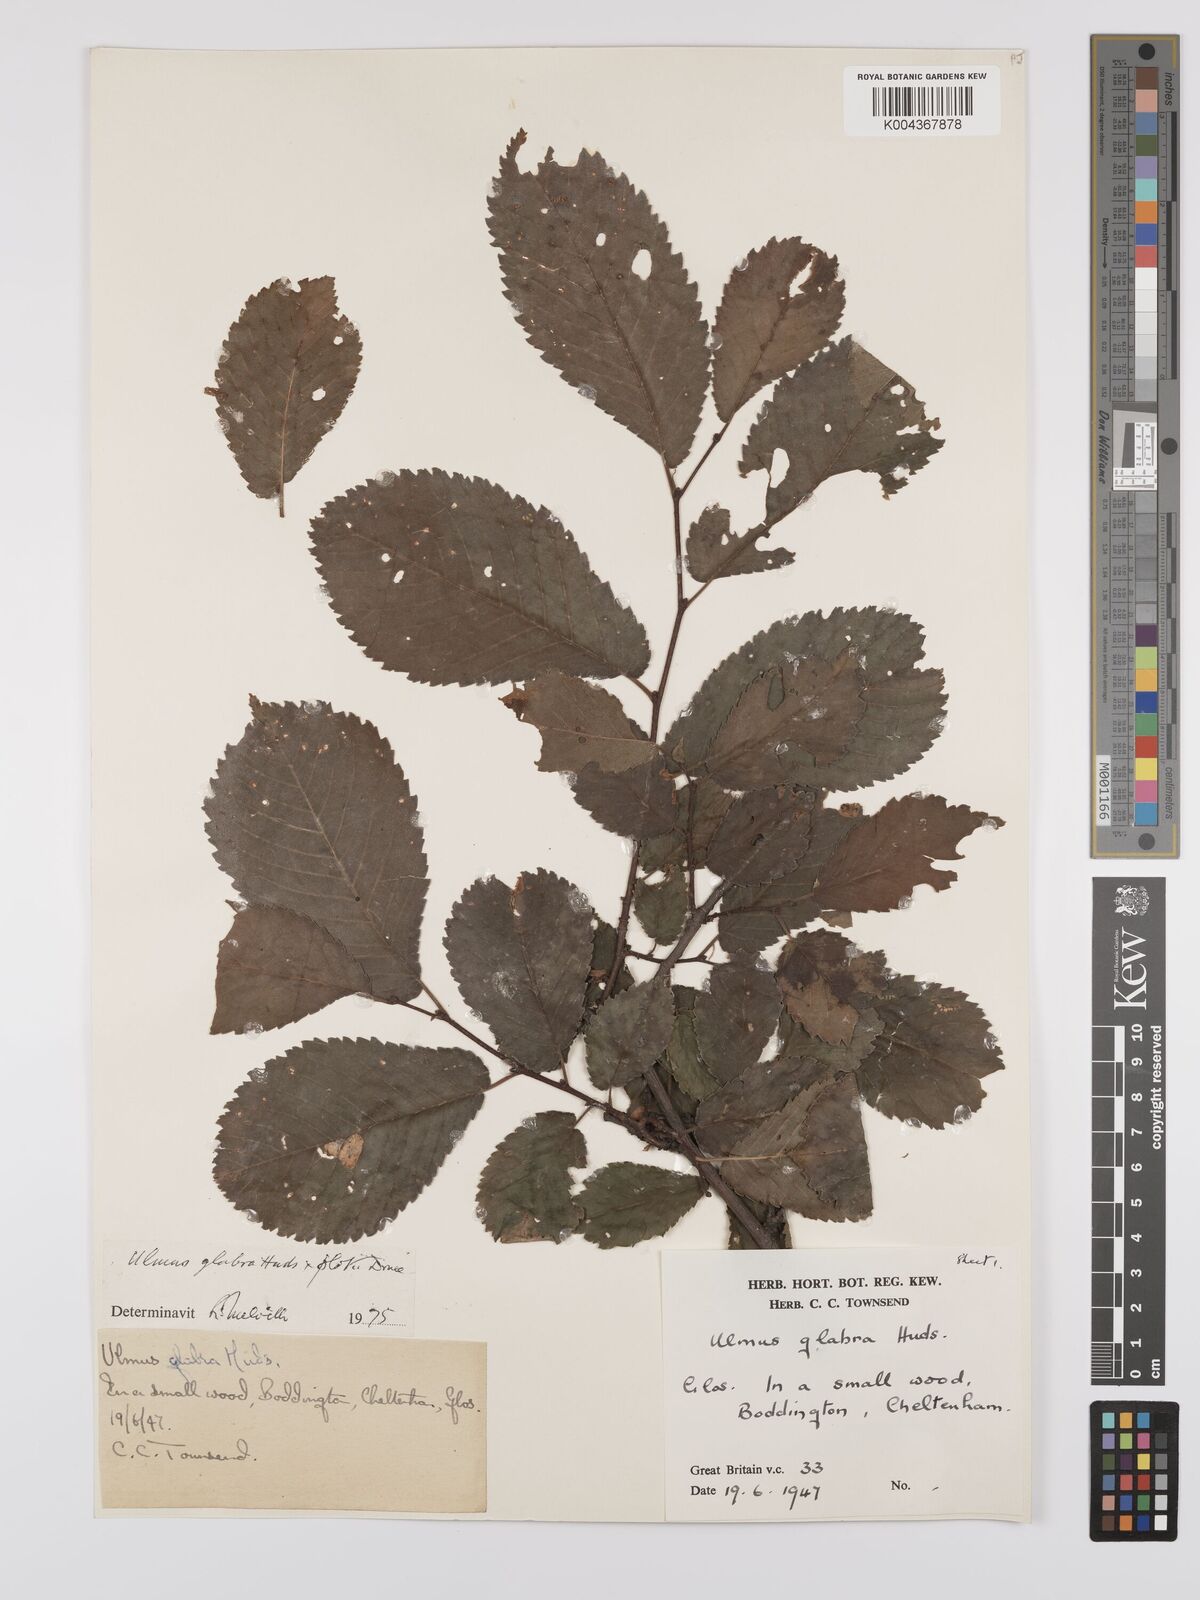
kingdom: Plantae
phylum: Tracheophyta
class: Magnoliopsida
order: Rosales
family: Ulmaceae
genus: Ulmus
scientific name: Ulmus
